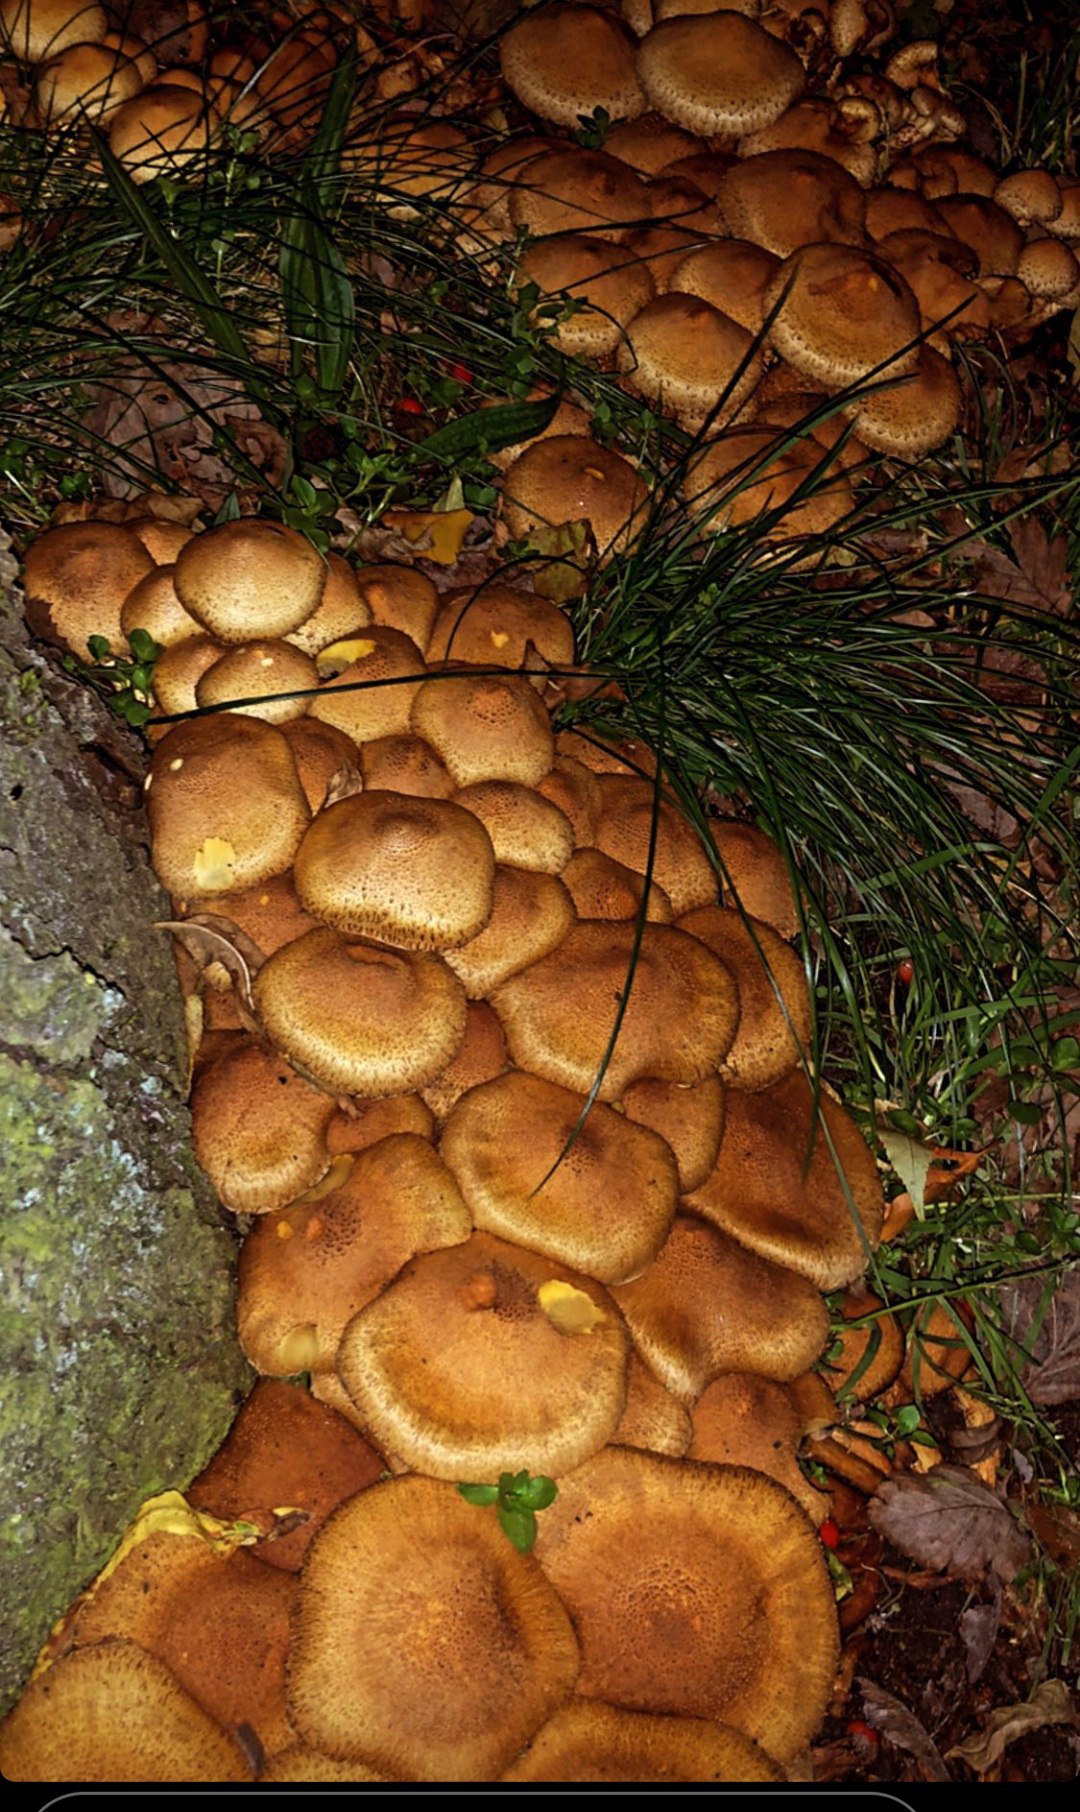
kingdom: Fungi
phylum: Basidiomycota
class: Agaricomycetes
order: Agaricales
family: Strophariaceae
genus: Pholiota
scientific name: Pholiota squarrosa
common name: krumskællet skælhat
